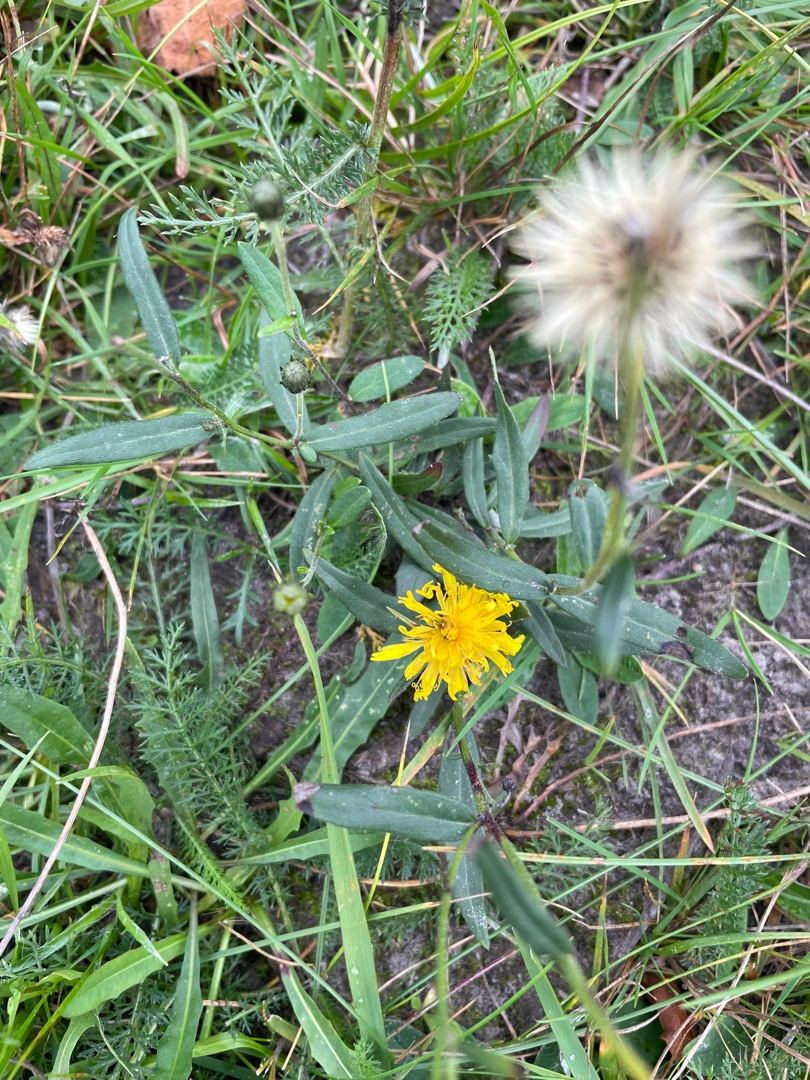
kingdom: Plantae
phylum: Tracheophyta
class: Magnoliopsida
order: Asterales
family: Asteraceae
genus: Hieracium
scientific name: Hieracium umbellatum
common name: Smalbladet høgeurt
